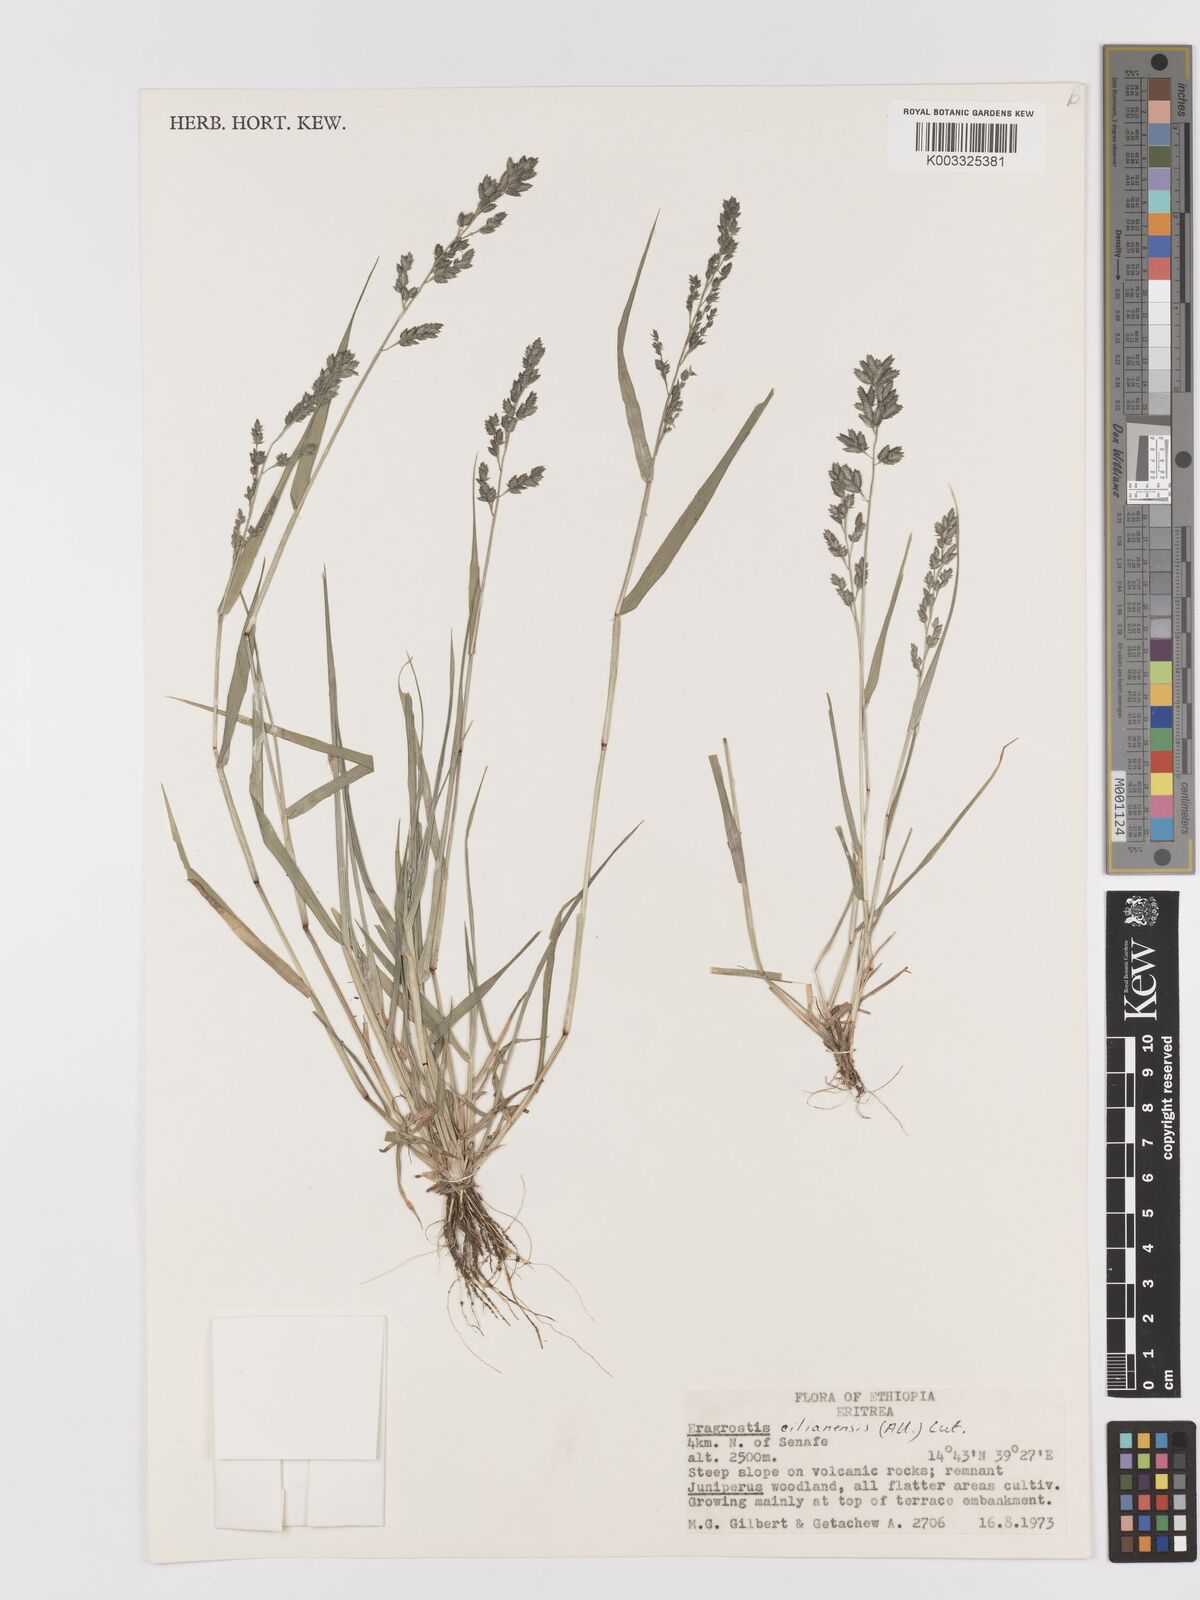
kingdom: Plantae
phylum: Tracheophyta
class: Liliopsida
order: Poales
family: Poaceae
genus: Eragrostis
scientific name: Eragrostis cilianensis
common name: Stinkgrass
